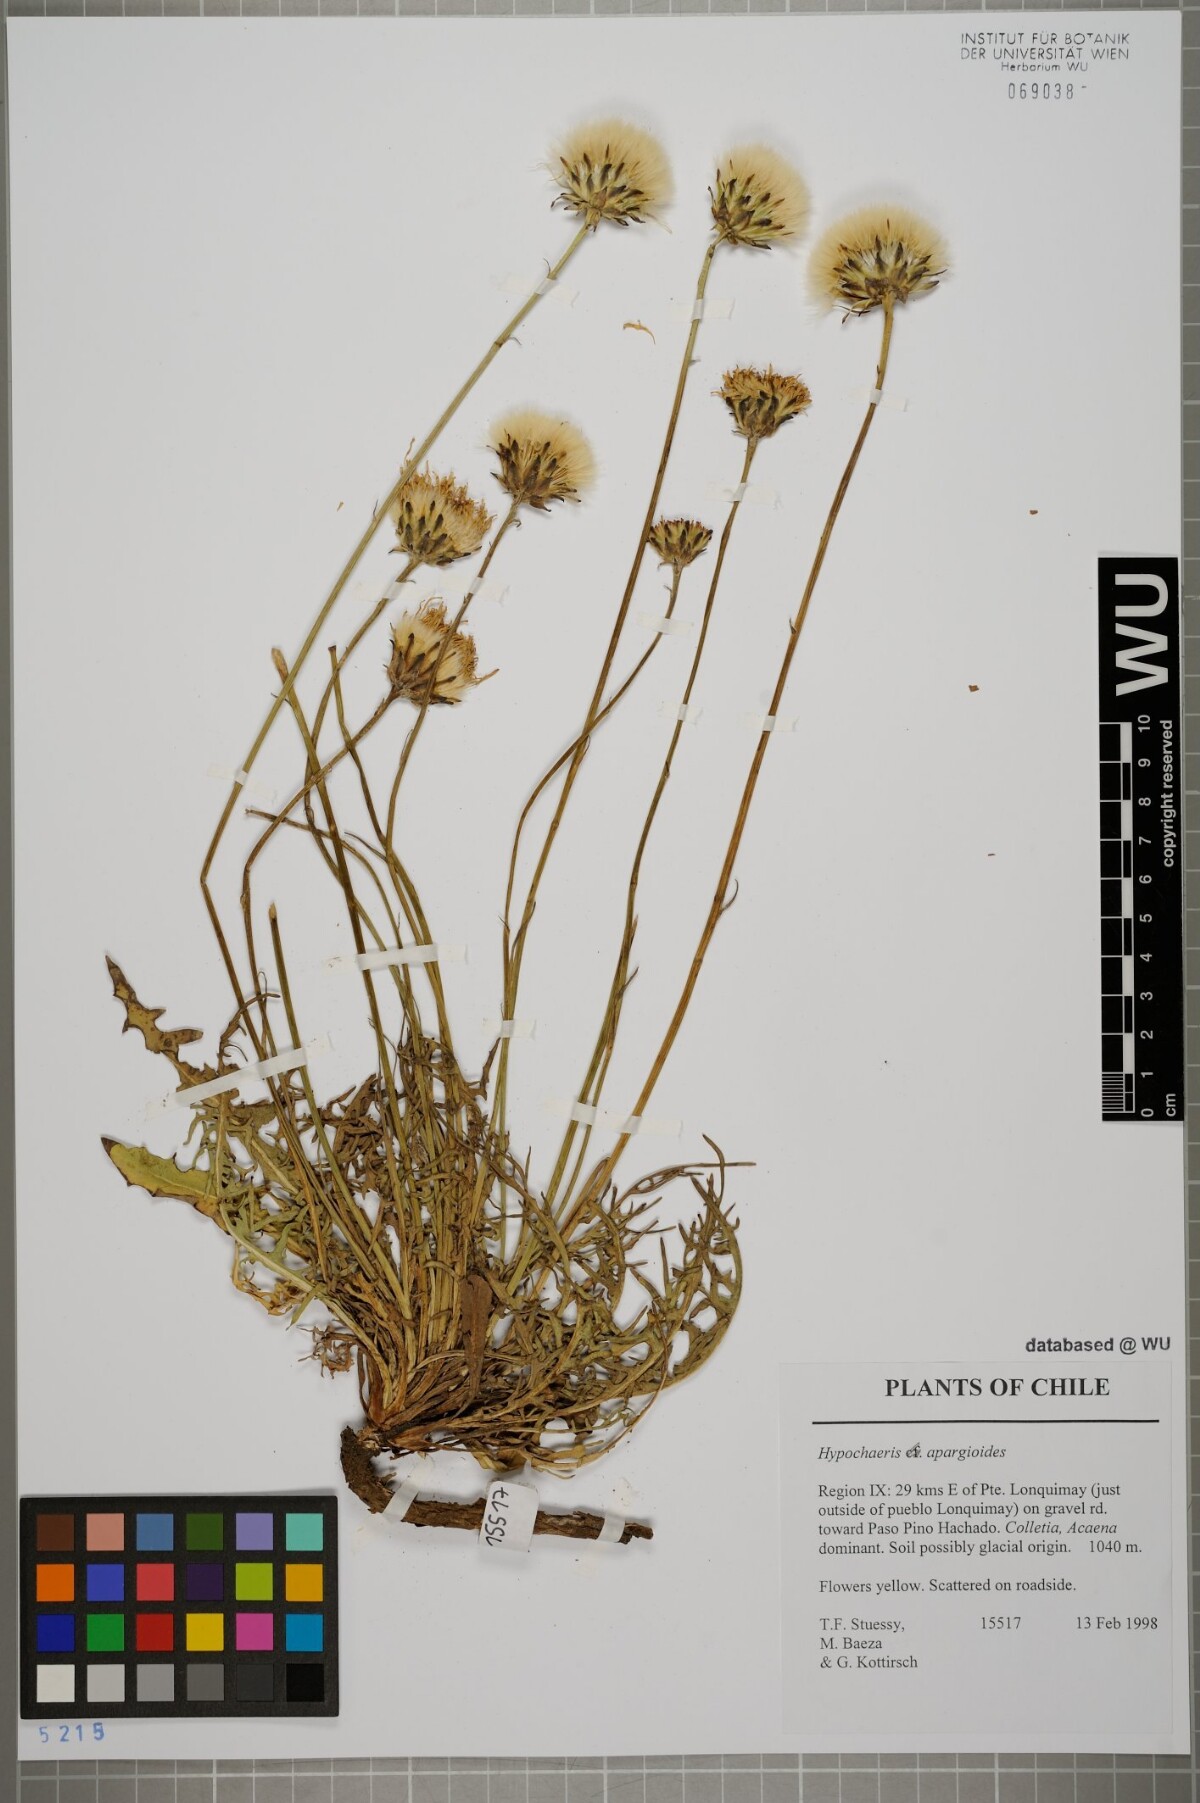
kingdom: Plantae
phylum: Tracheophyta
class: Magnoliopsida
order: Asterales
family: Asteraceae
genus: Hypochaeris
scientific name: Hypochaeris apargioides
